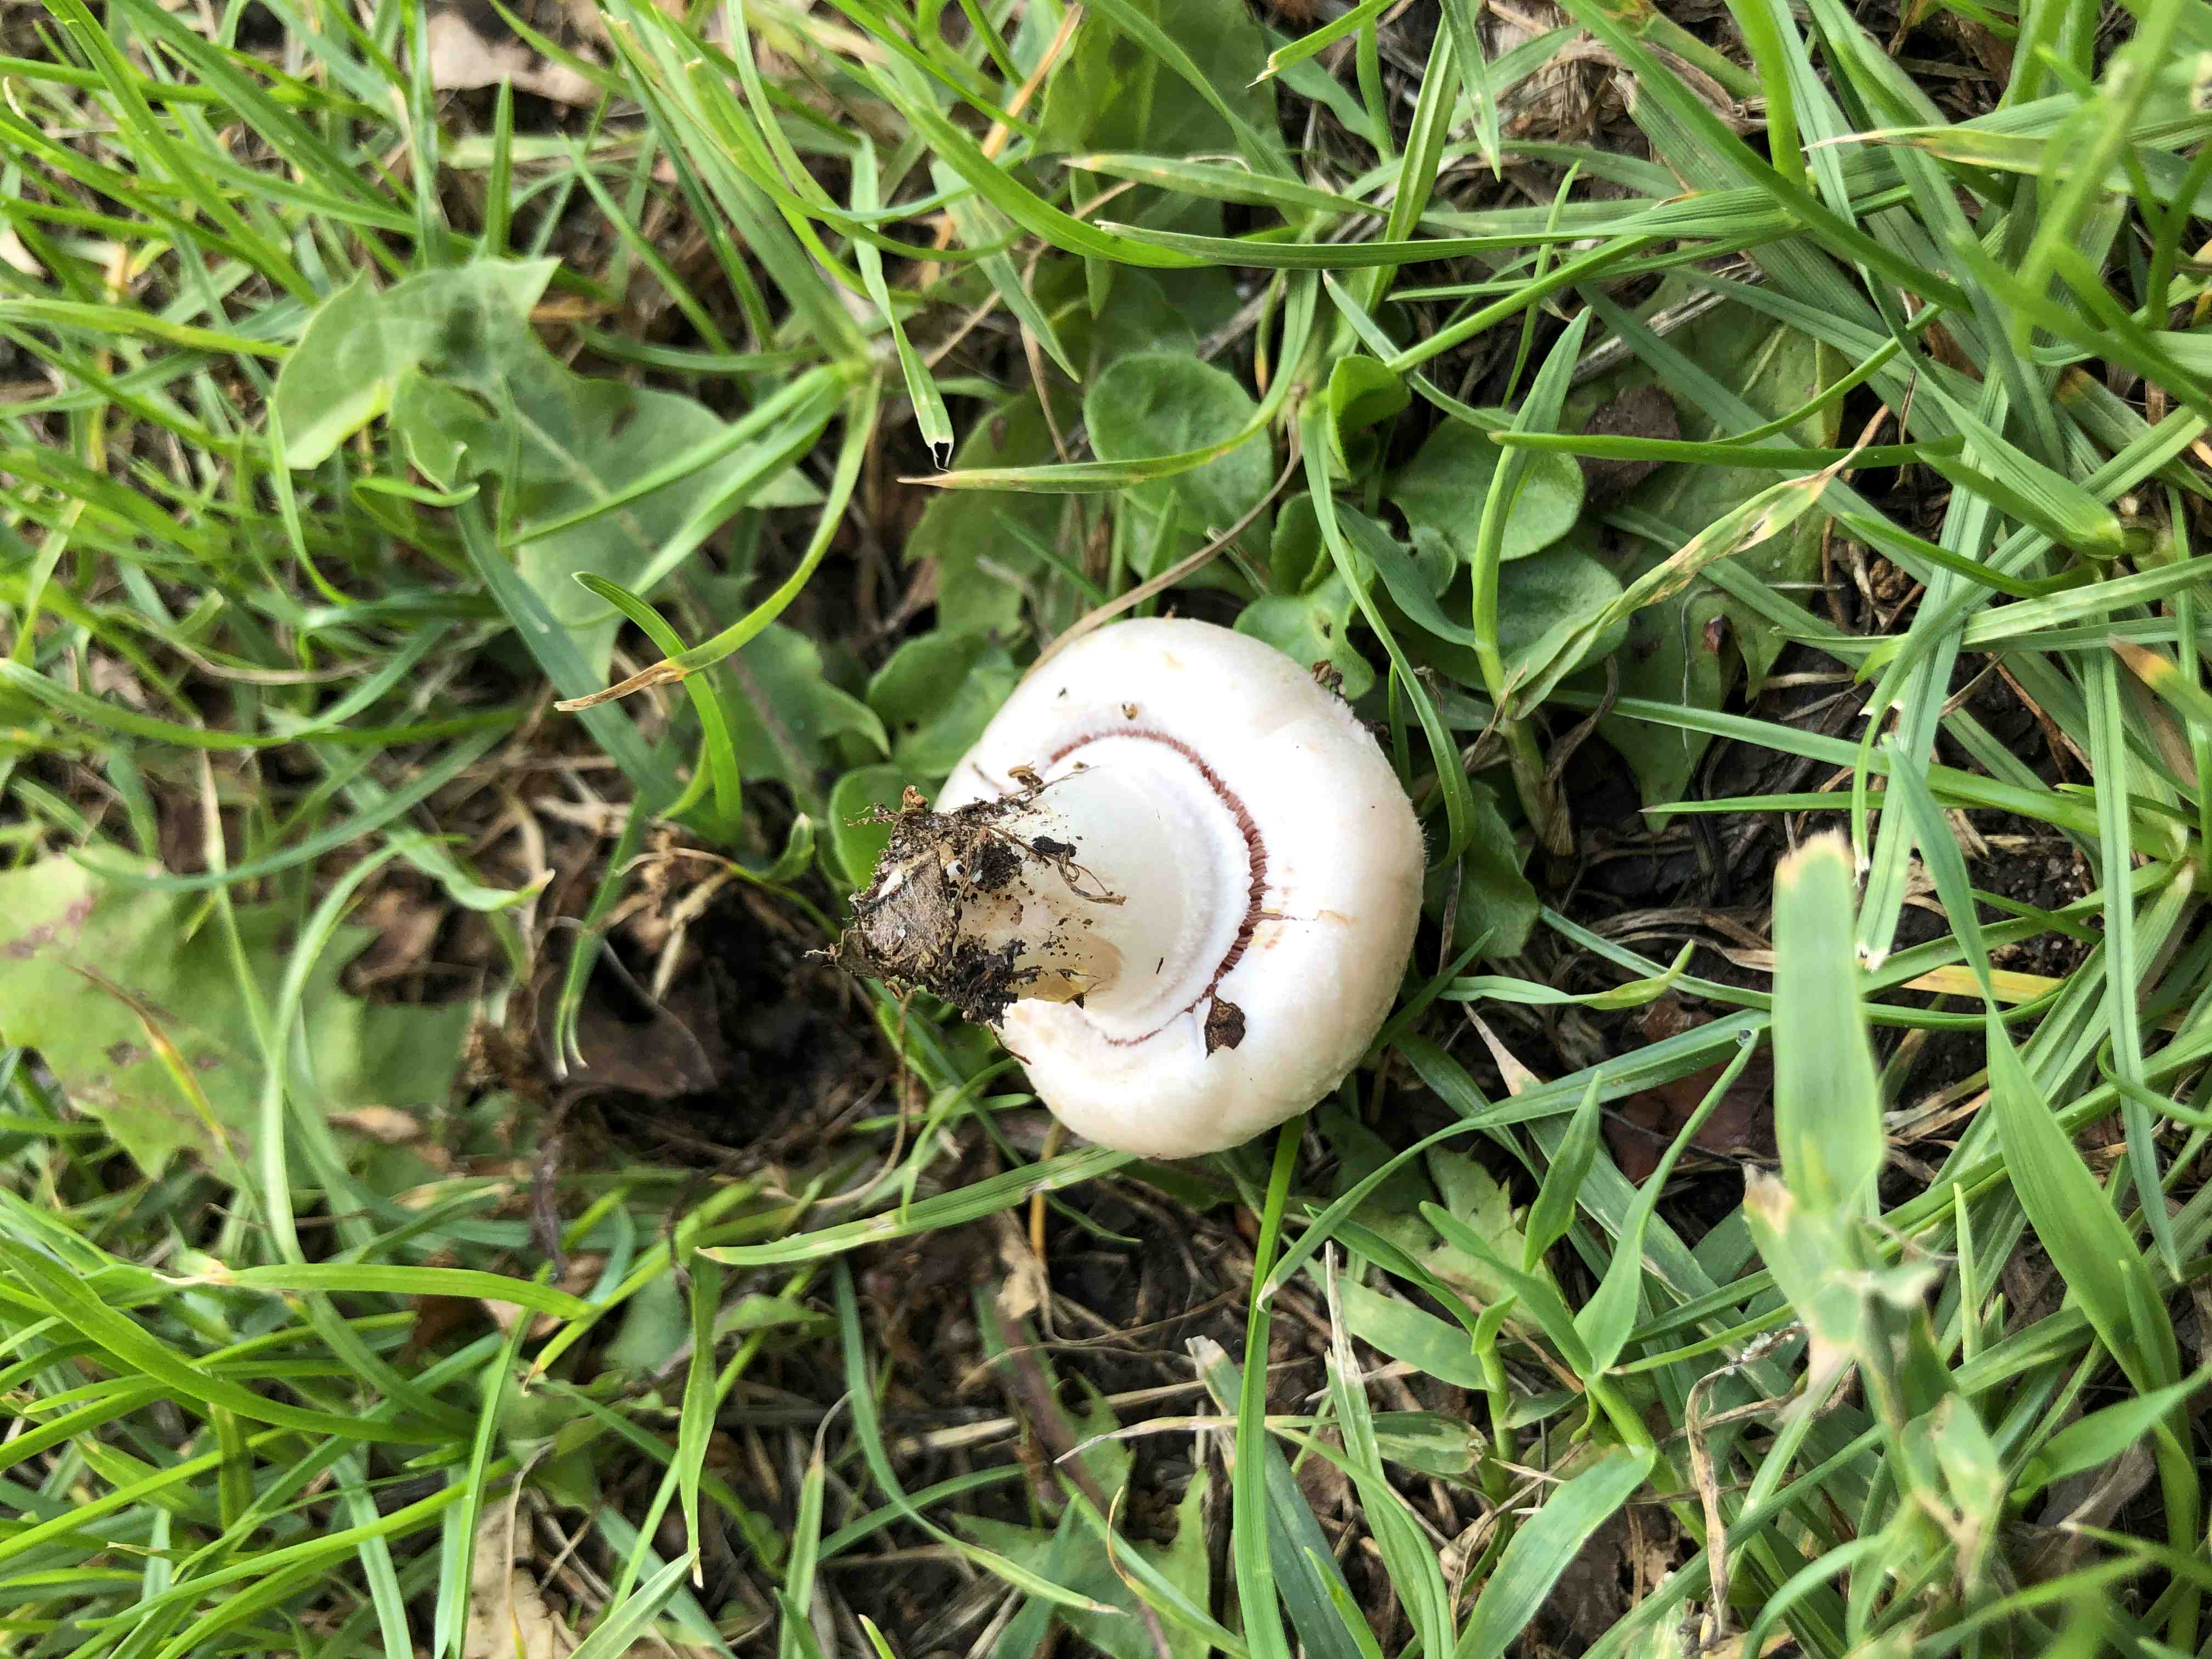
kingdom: Fungi
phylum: Basidiomycota
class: Agaricomycetes
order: Agaricales
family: Agaricaceae
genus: Agaricus
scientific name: Agaricus campestris
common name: mark-champignon
